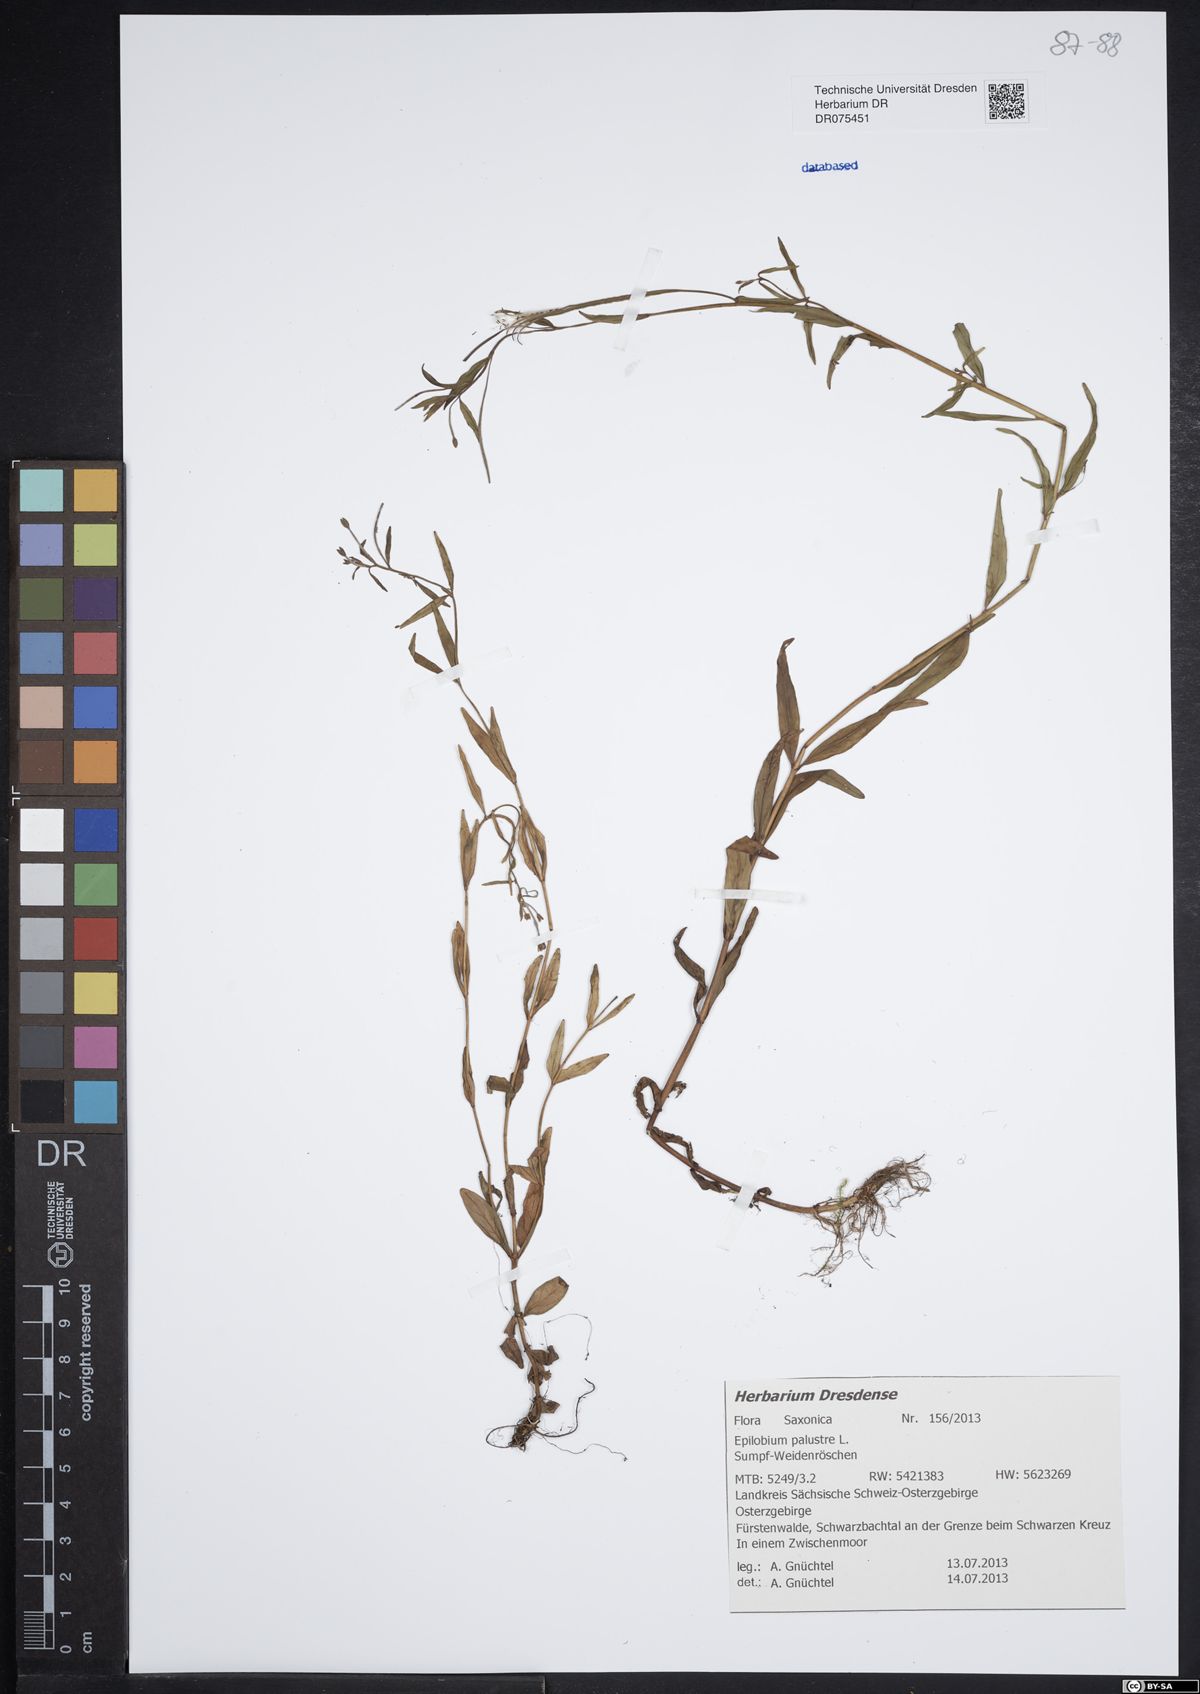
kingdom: Plantae
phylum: Tracheophyta
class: Magnoliopsida
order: Myrtales
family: Onagraceae
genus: Epilobium
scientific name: Epilobium palustre
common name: Marsh willowherb
